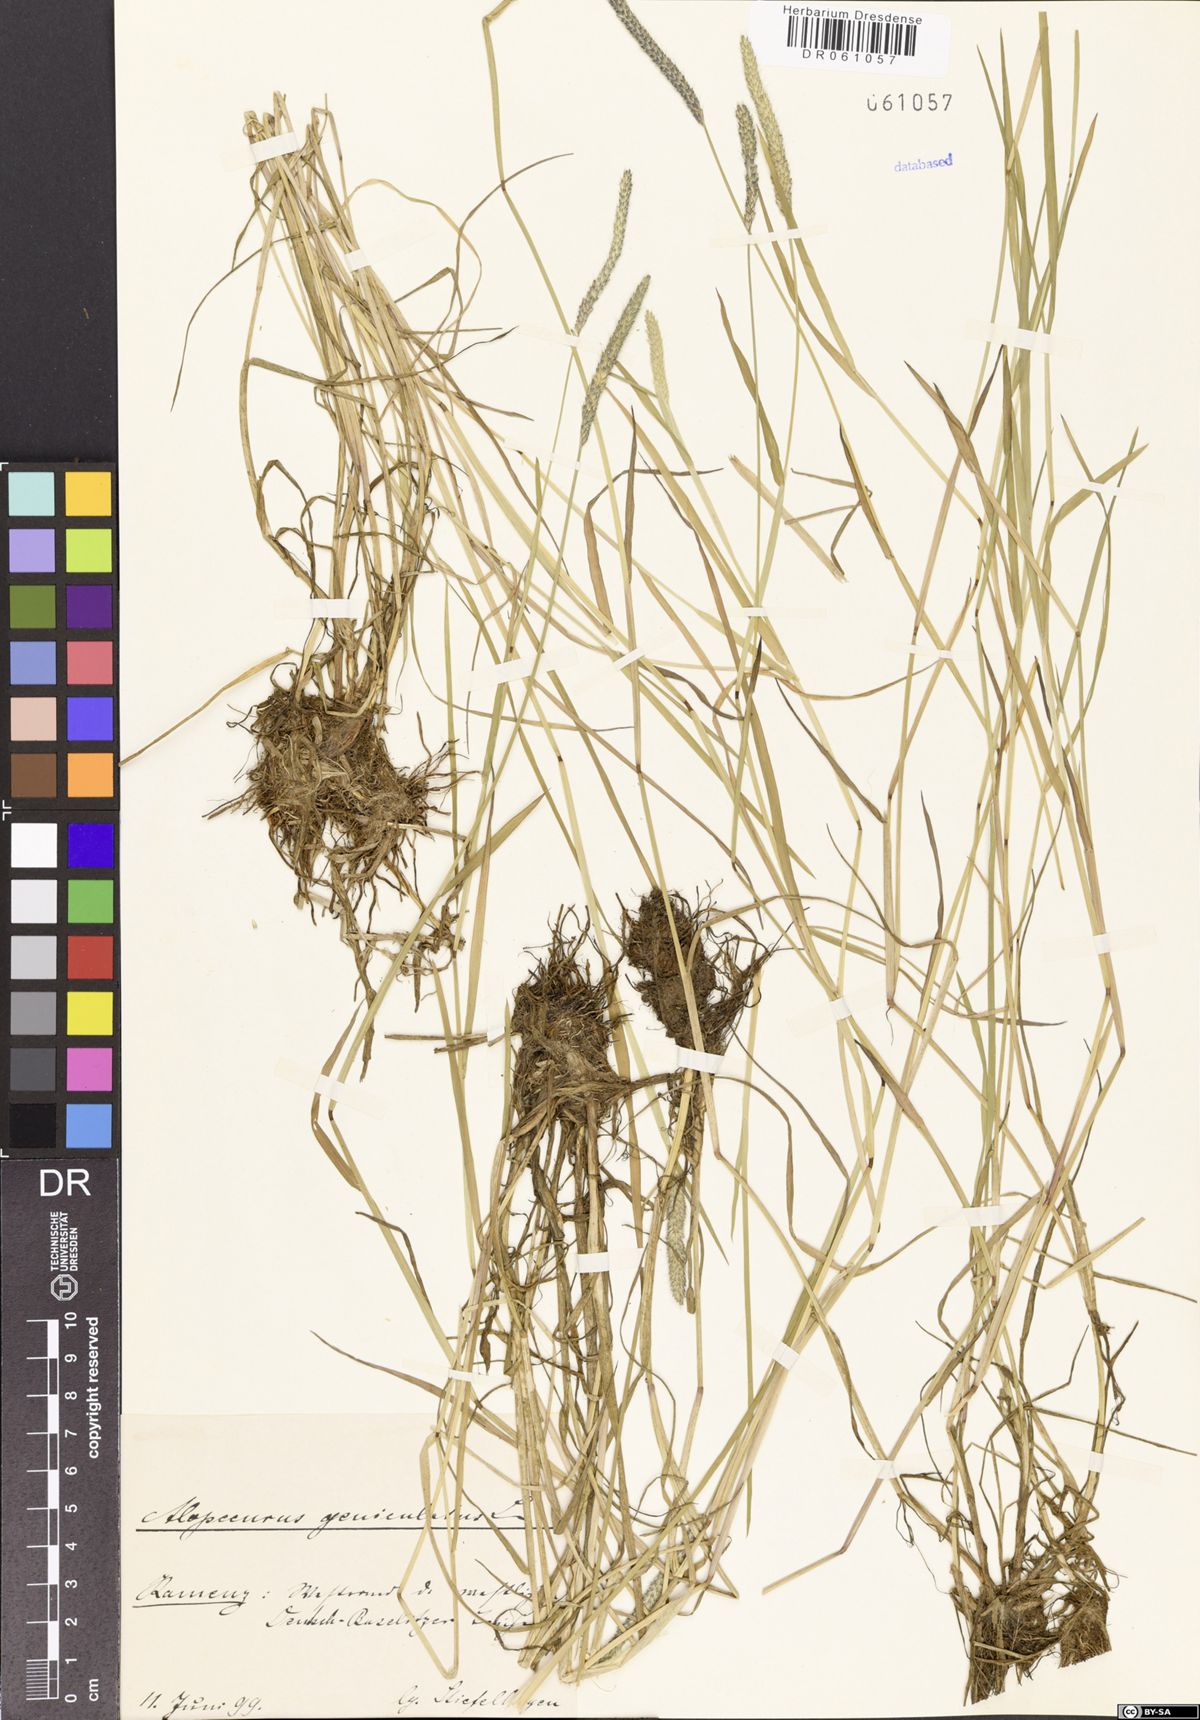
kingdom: Plantae
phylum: Tracheophyta
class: Liliopsida
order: Poales
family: Poaceae
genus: Alopecurus
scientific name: Alopecurus geniculatus
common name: Water foxtail
